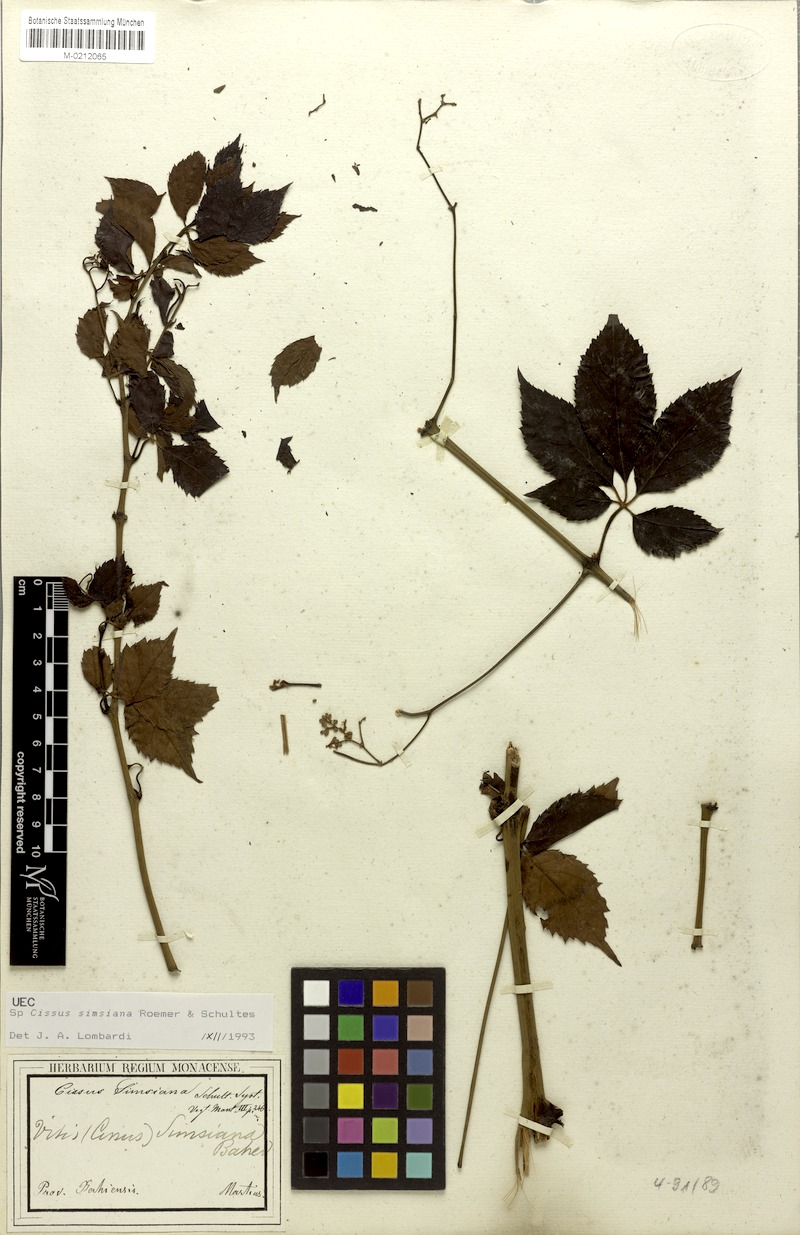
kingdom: Plantae
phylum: Tracheophyta
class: Magnoliopsida
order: Vitales
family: Vitaceae
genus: Clematicissus
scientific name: Clematicissus simsiana
